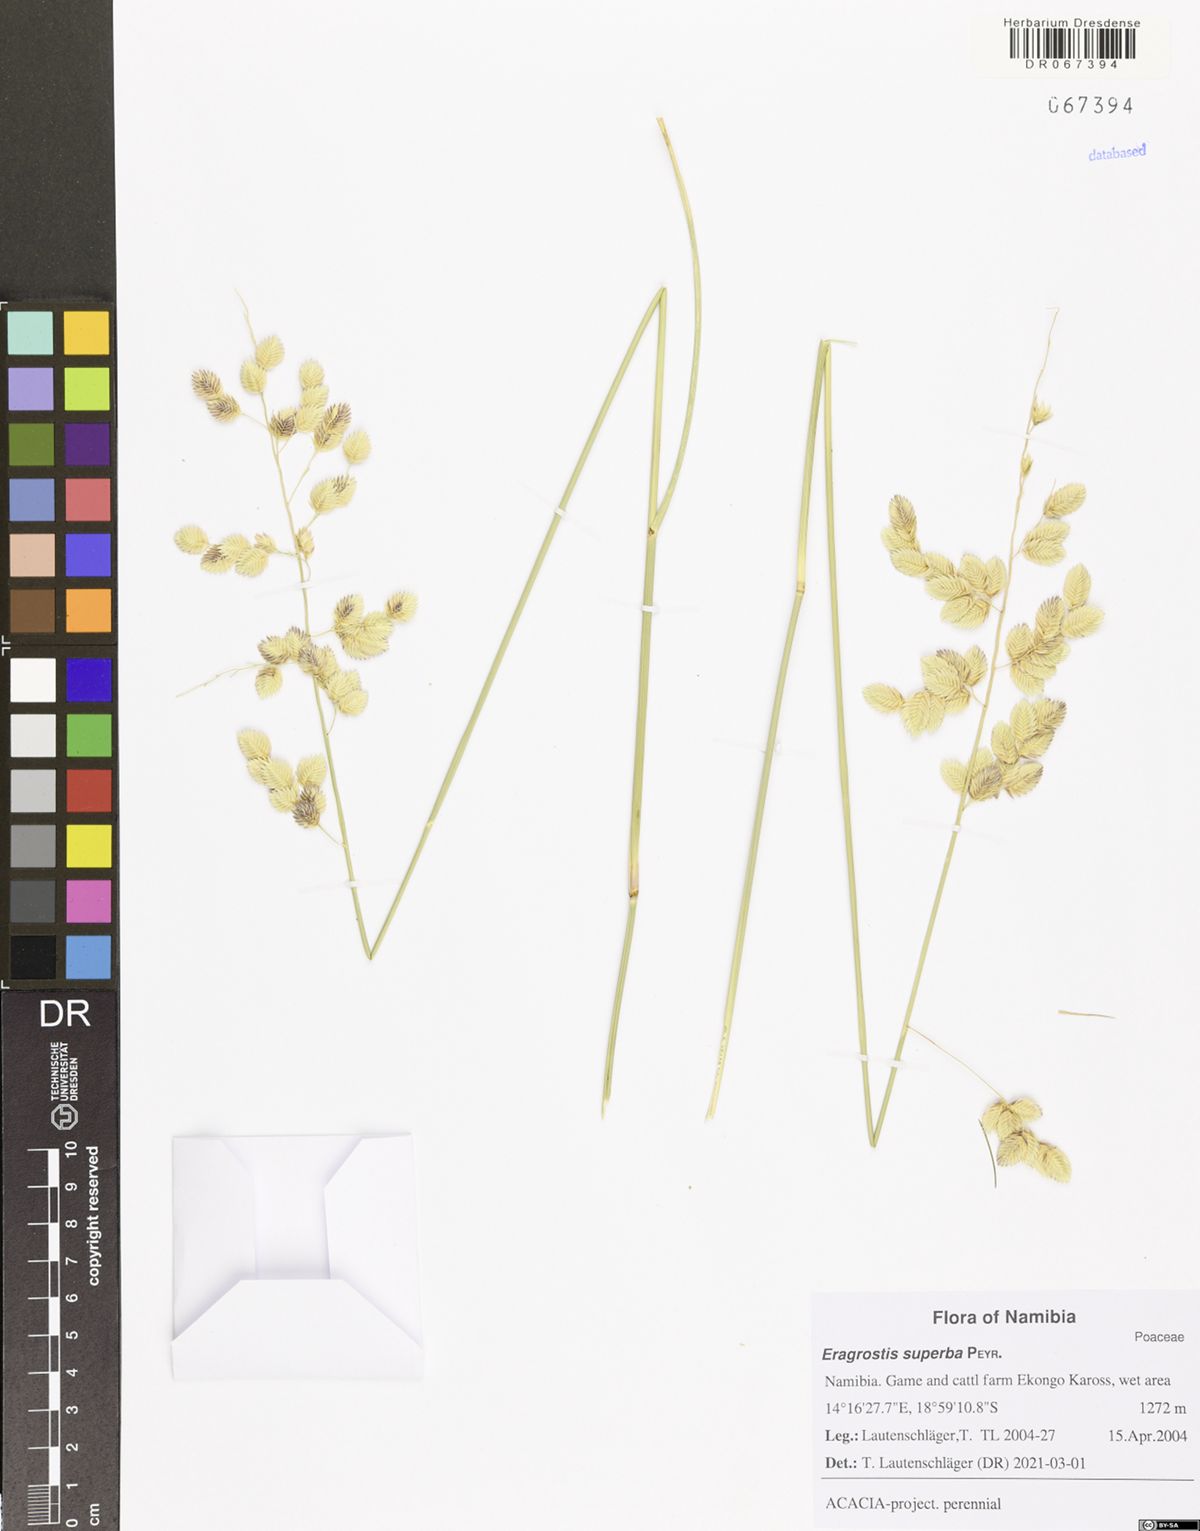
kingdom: Plantae
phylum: Tracheophyta
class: Liliopsida
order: Poales
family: Poaceae
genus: Eragrostis
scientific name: Eragrostis superba
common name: Wilman lovegrass
